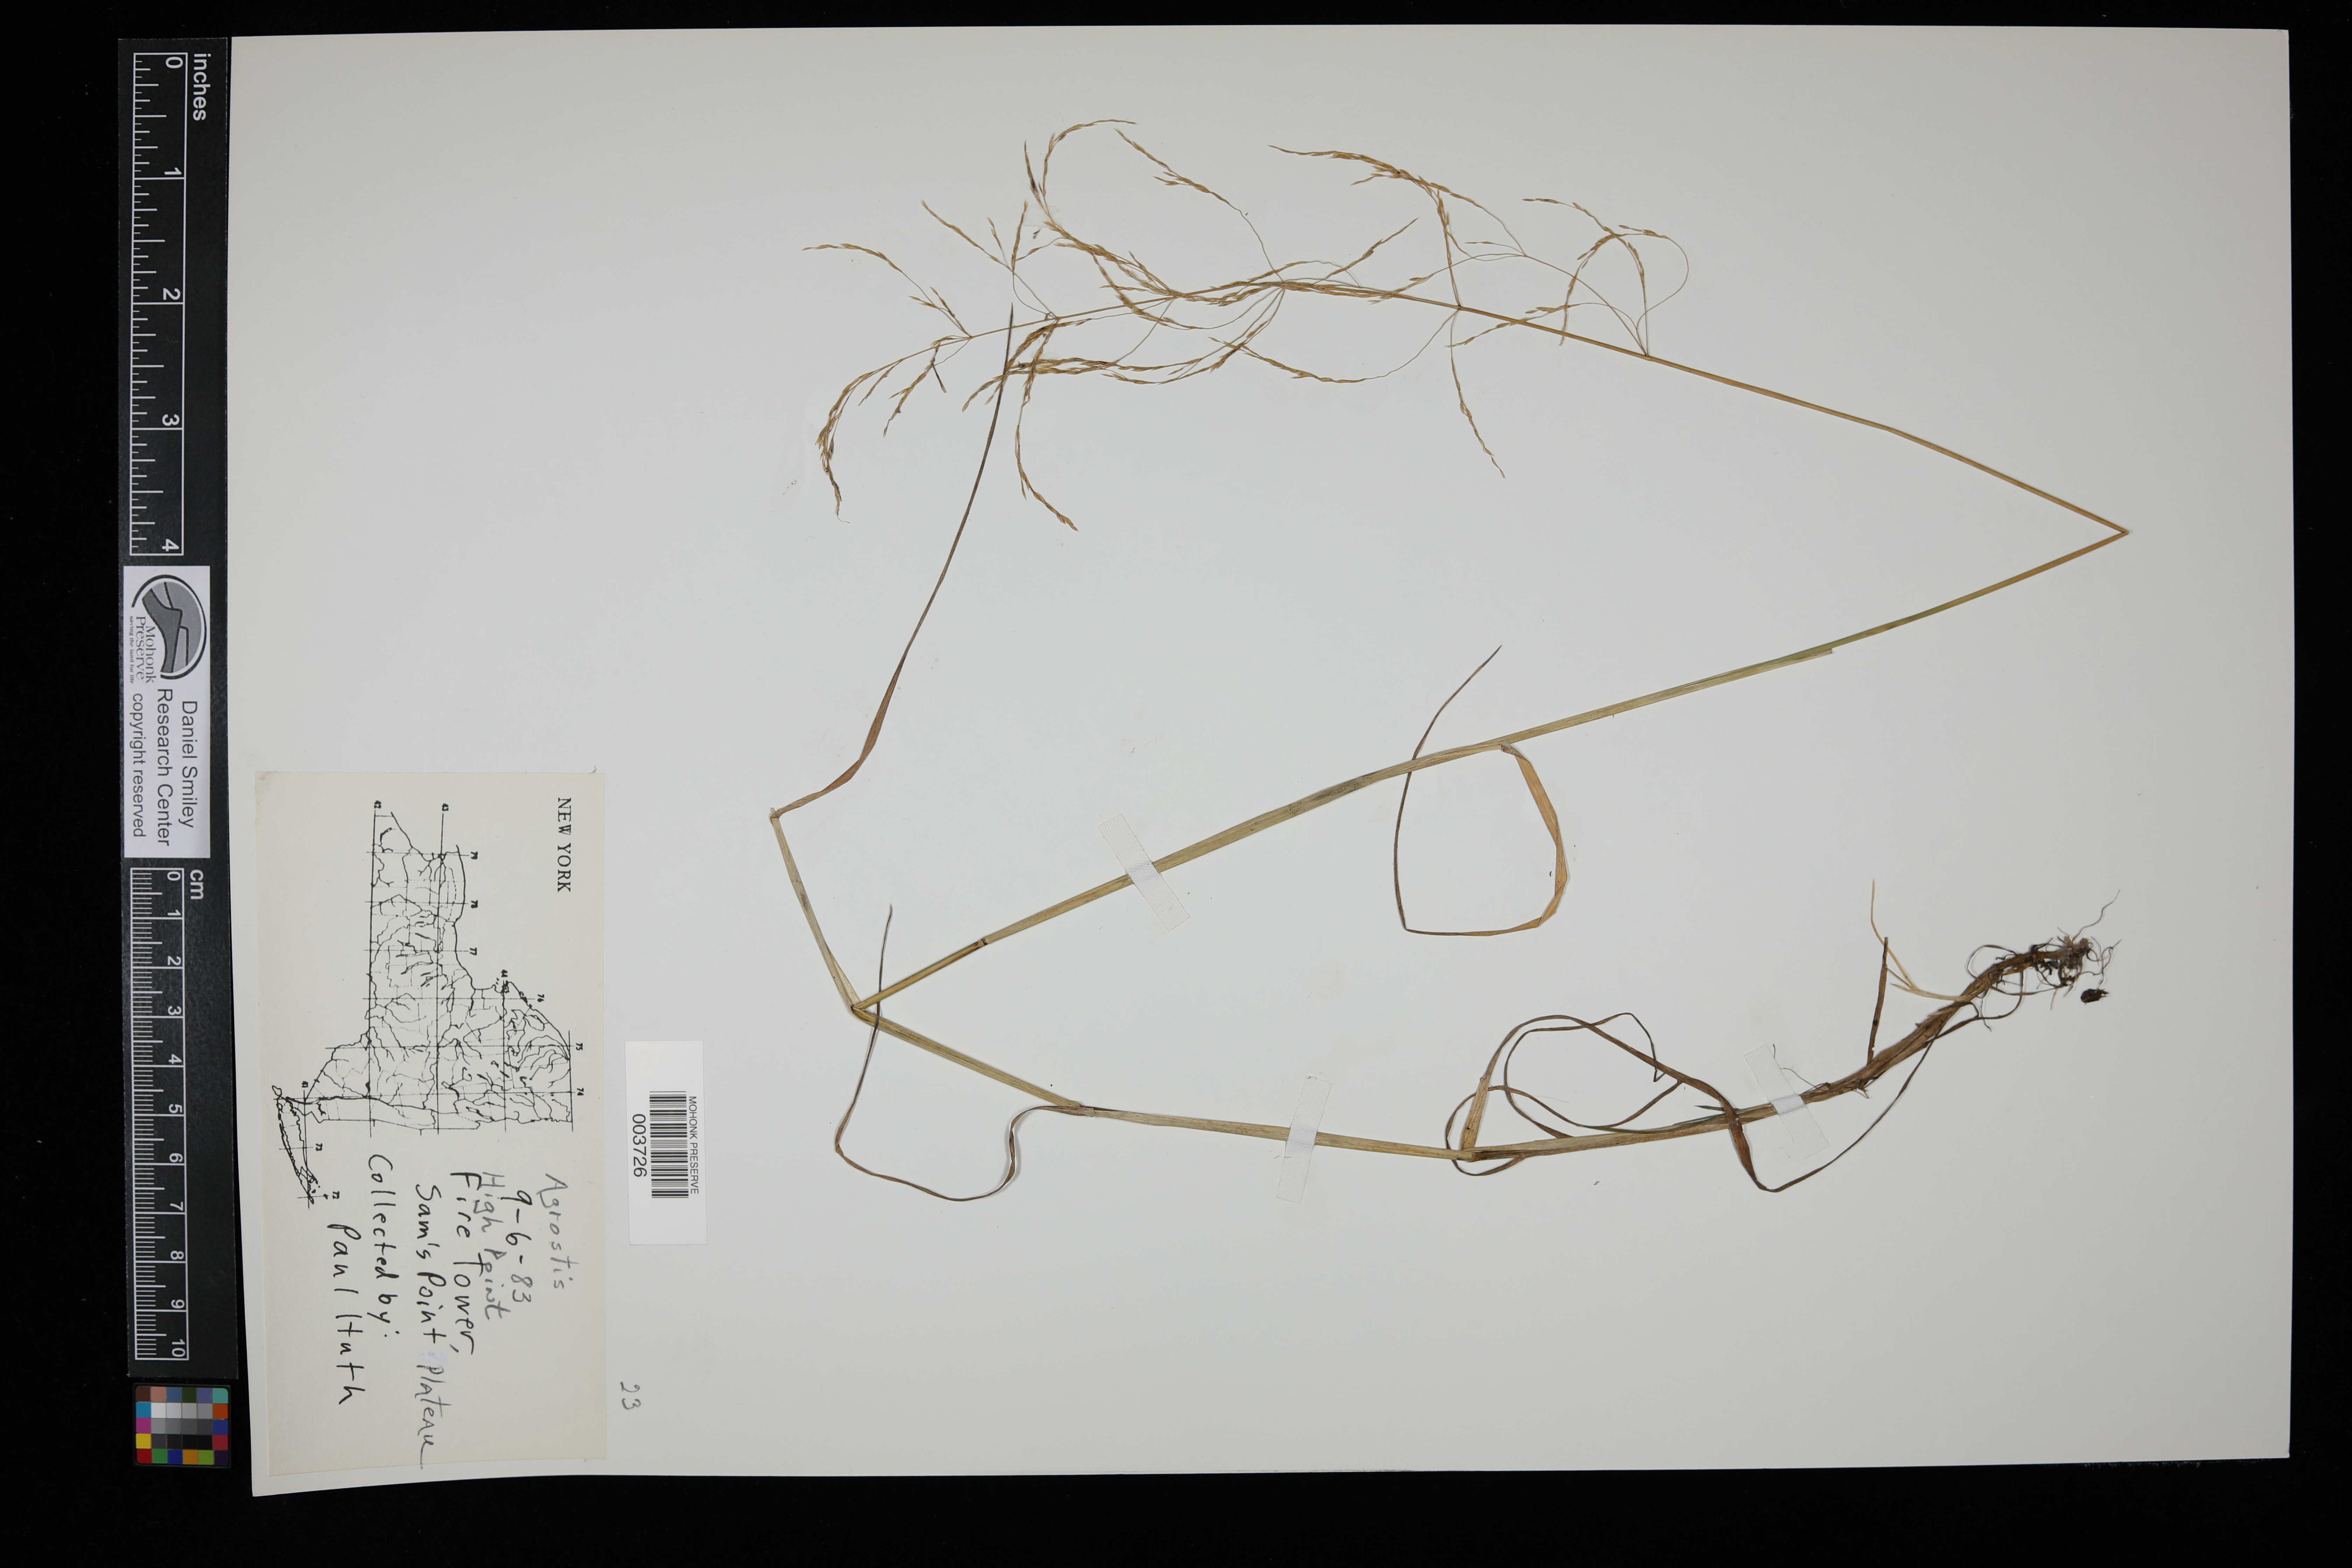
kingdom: Plantae
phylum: Tracheophyta
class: Liliopsida
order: Poales
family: Poaceae
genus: Agrostis
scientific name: Agrostis
